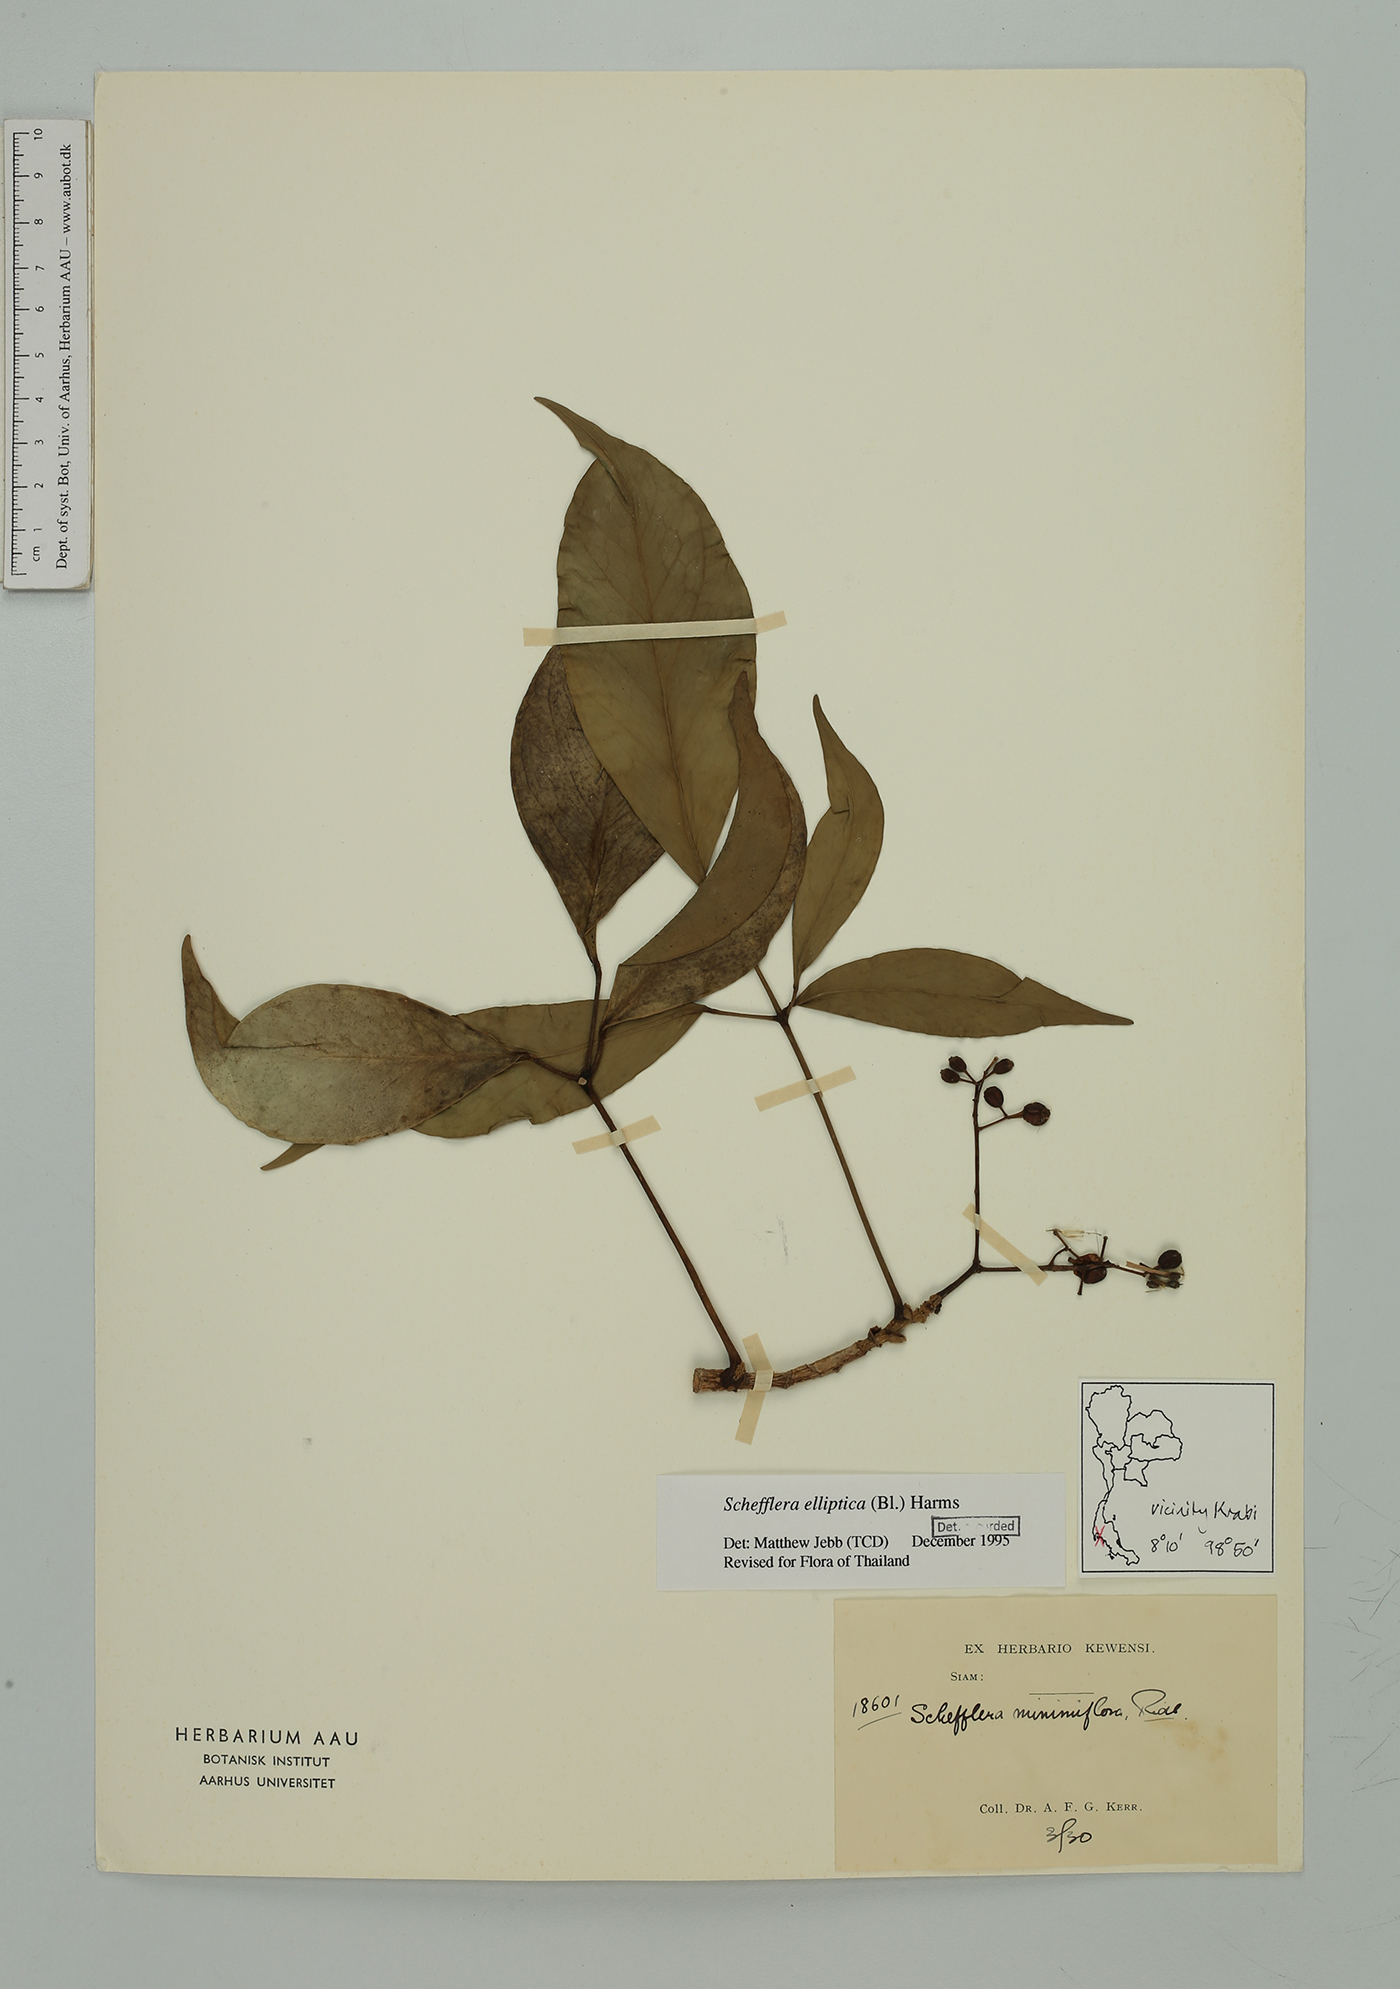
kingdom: Plantae
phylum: Tracheophyta
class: Magnoliopsida
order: Apiales
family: Araliaceae
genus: Heptapleurum
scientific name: Heptapleurum ellipticum
